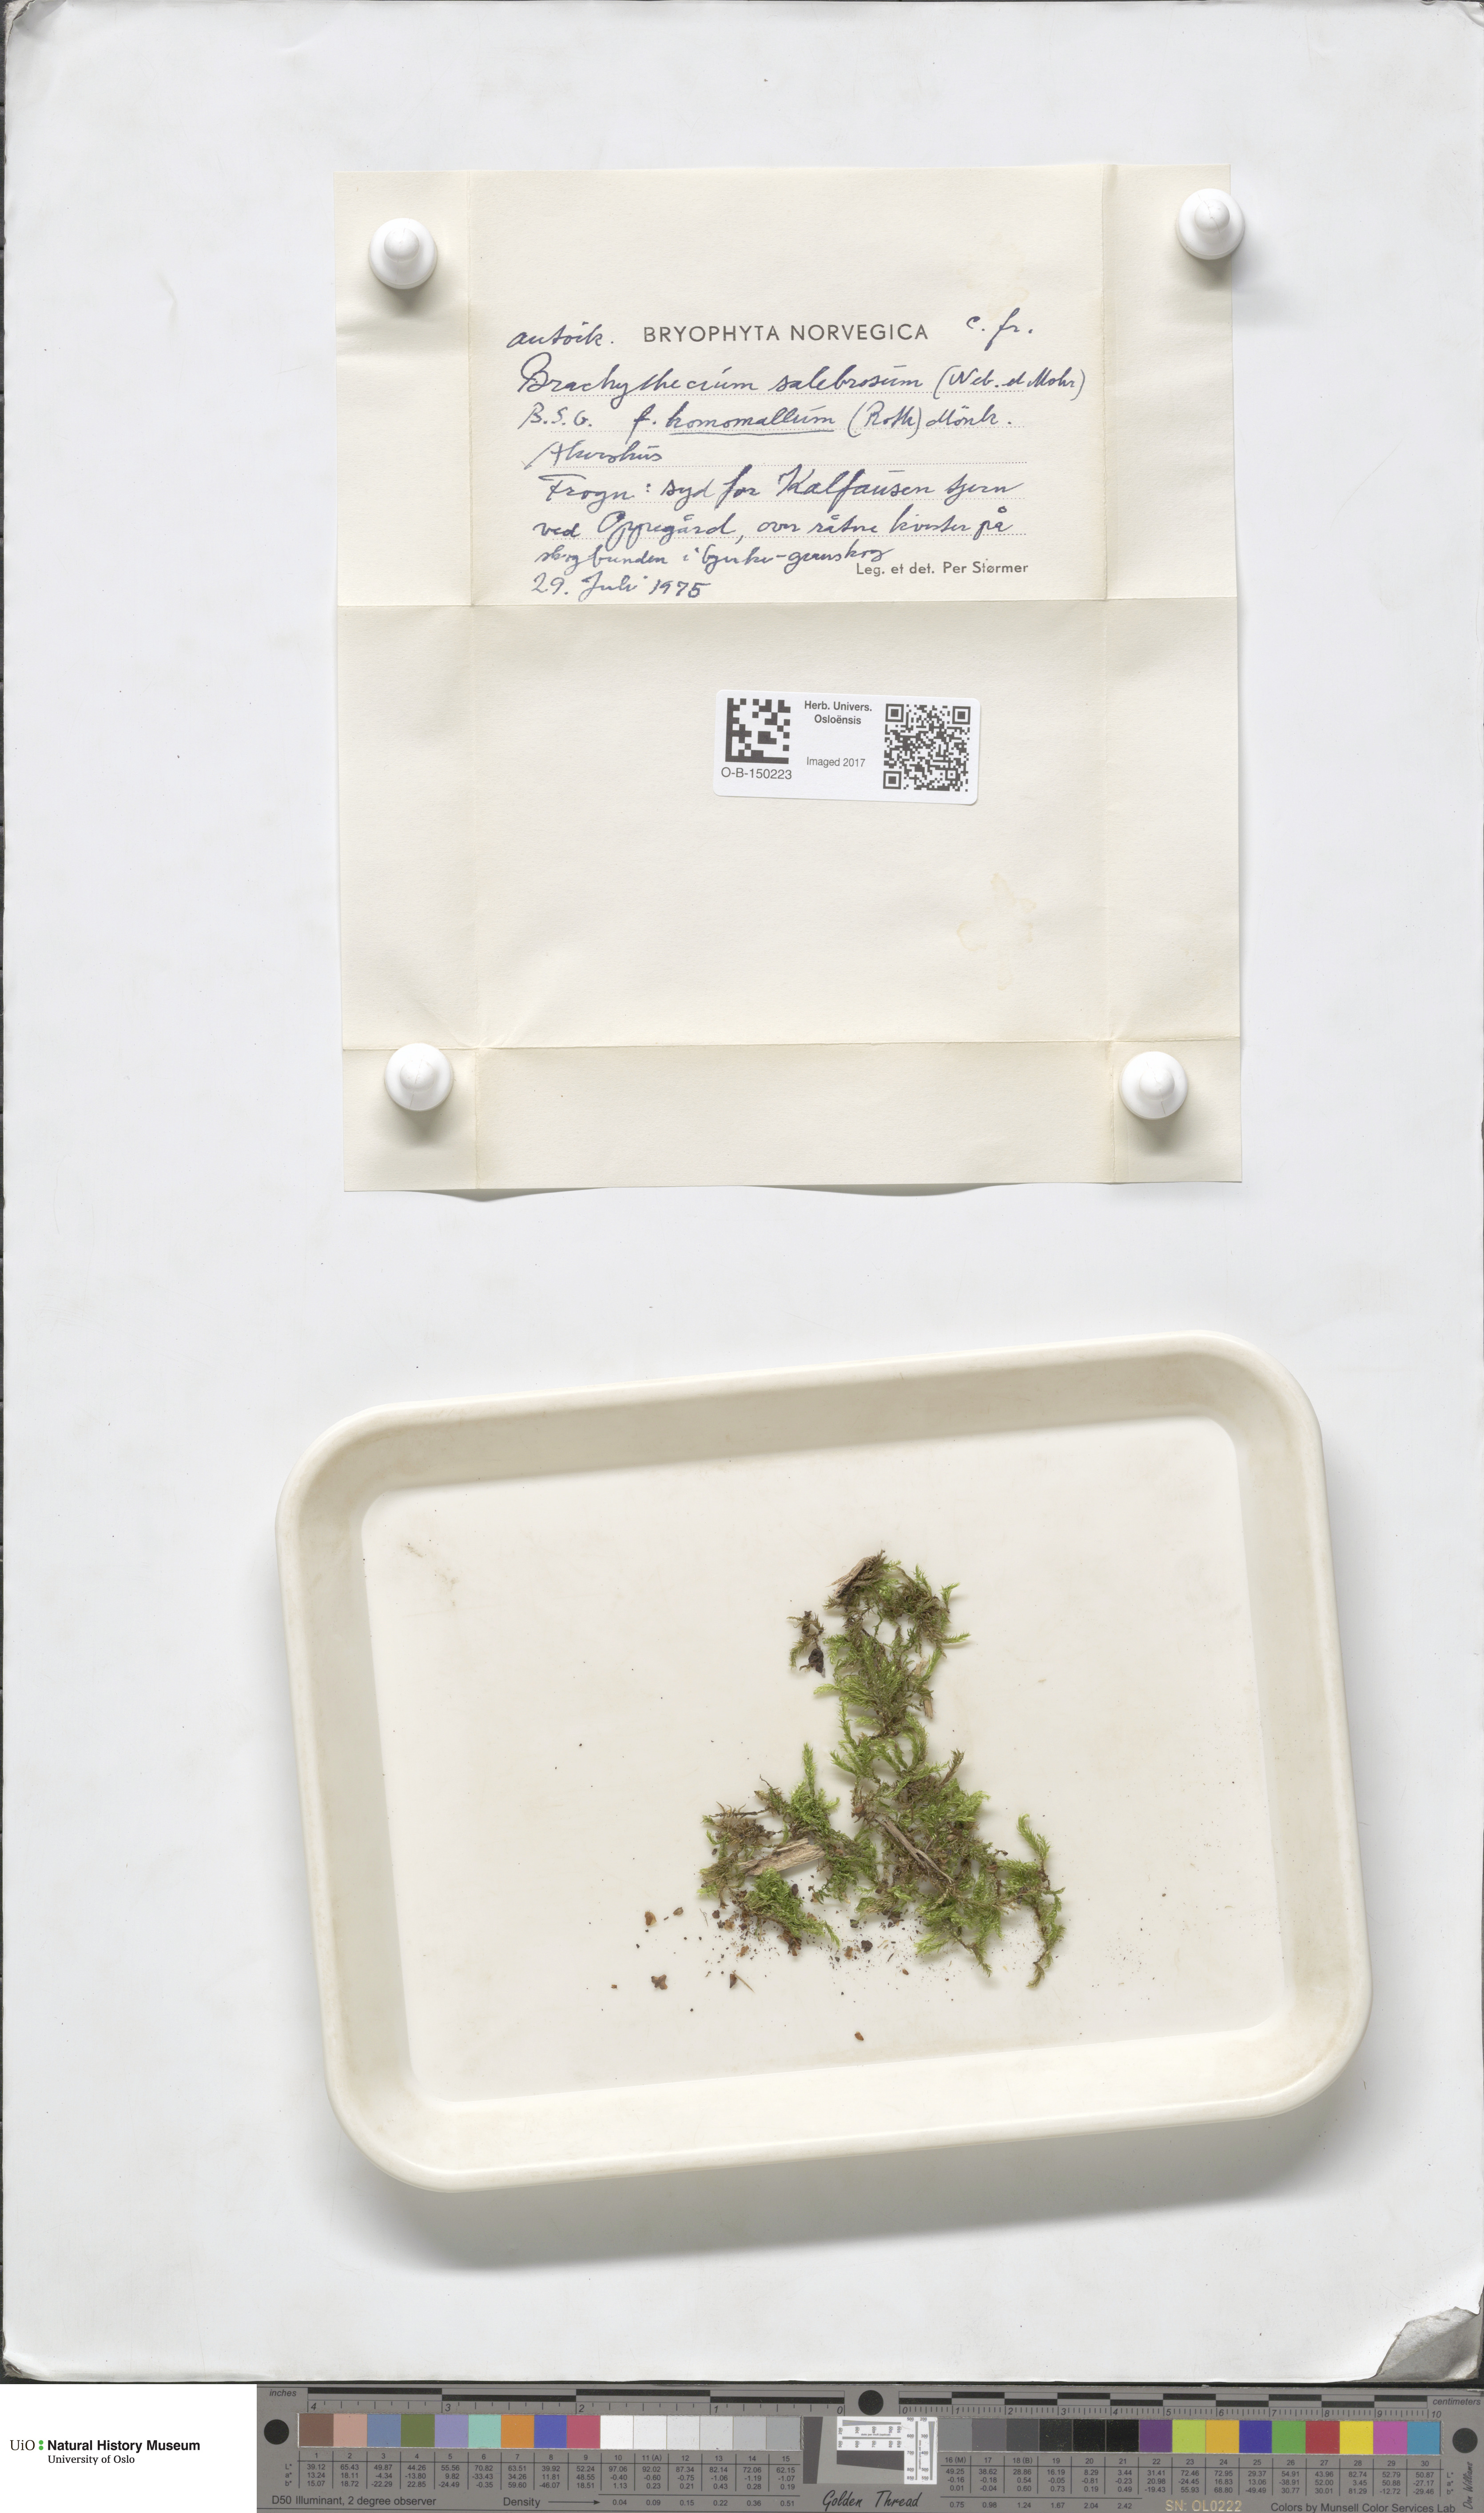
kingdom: Plantae
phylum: Bryophyta
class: Bryopsida
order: Hypnales
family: Brachytheciaceae
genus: Brachythecium
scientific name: Brachythecium salebrosum
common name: Smooth-stalk feather-moss
